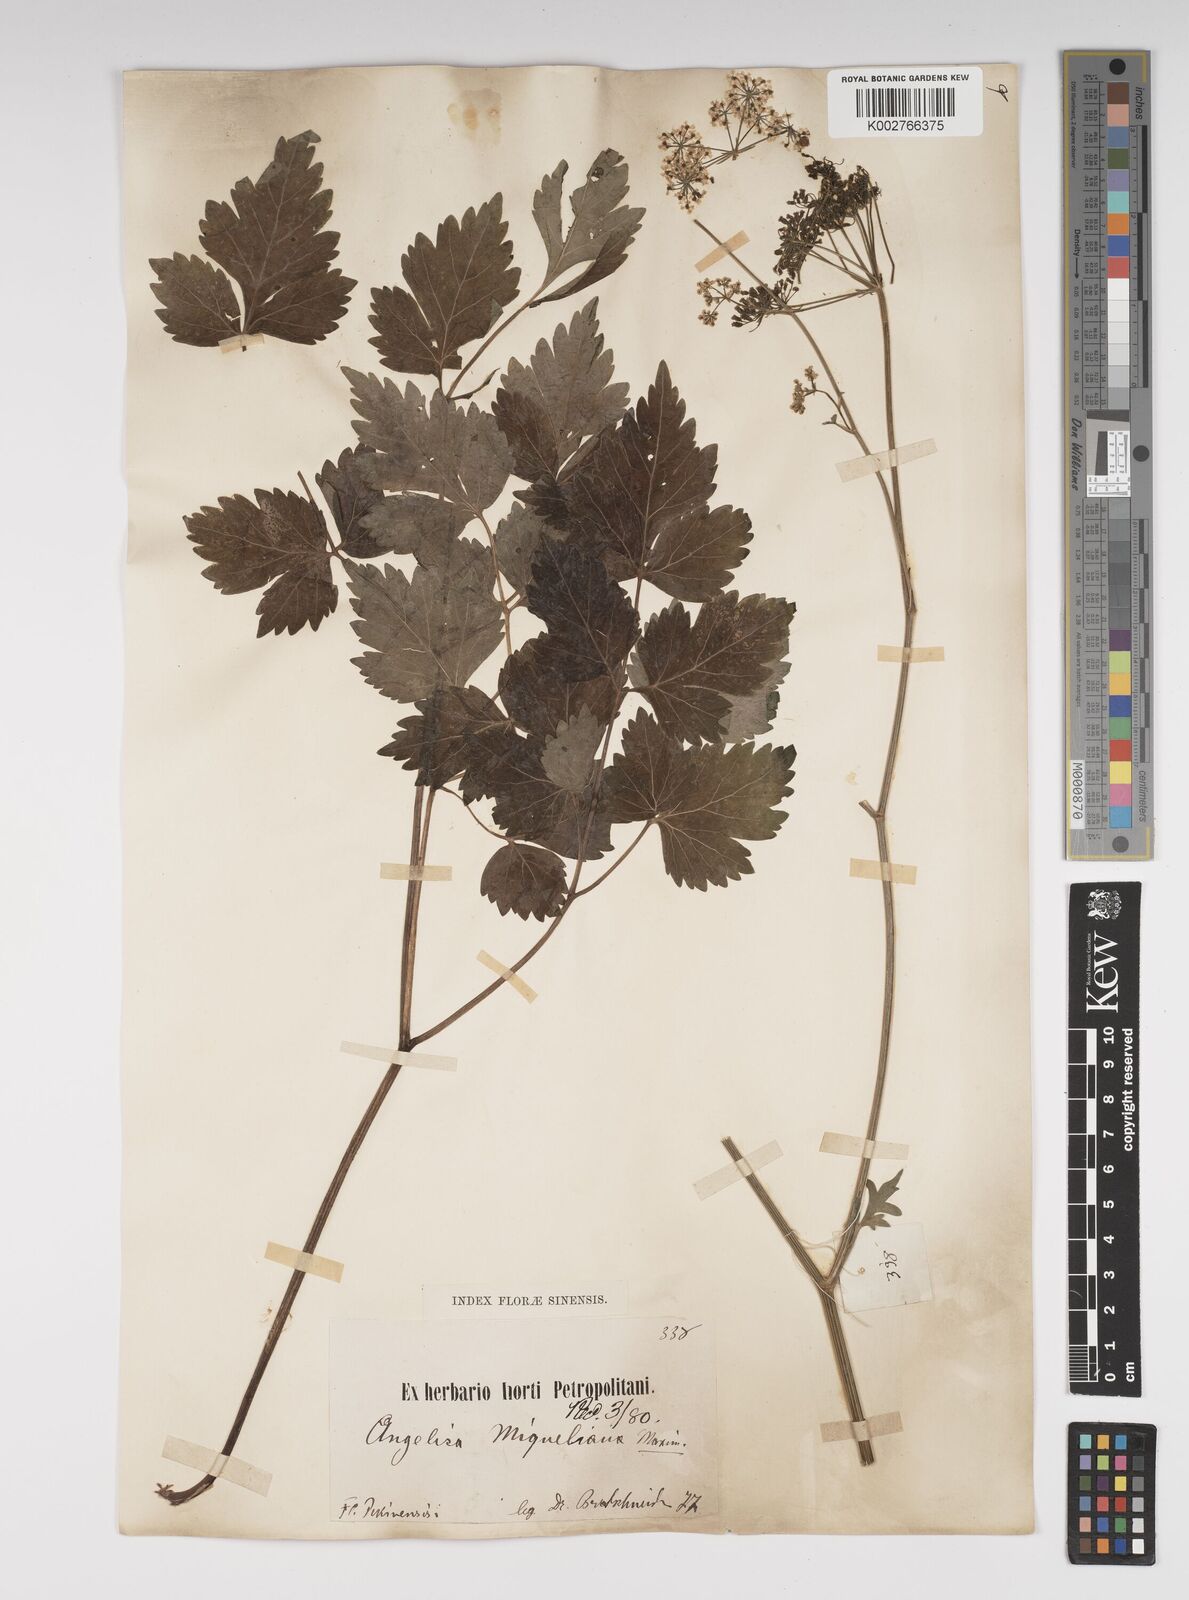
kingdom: Plantae
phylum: Tracheophyta
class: Magnoliopsida
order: Apiales
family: Apiaceae
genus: Ostericum
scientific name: Ostericum sieboldii
